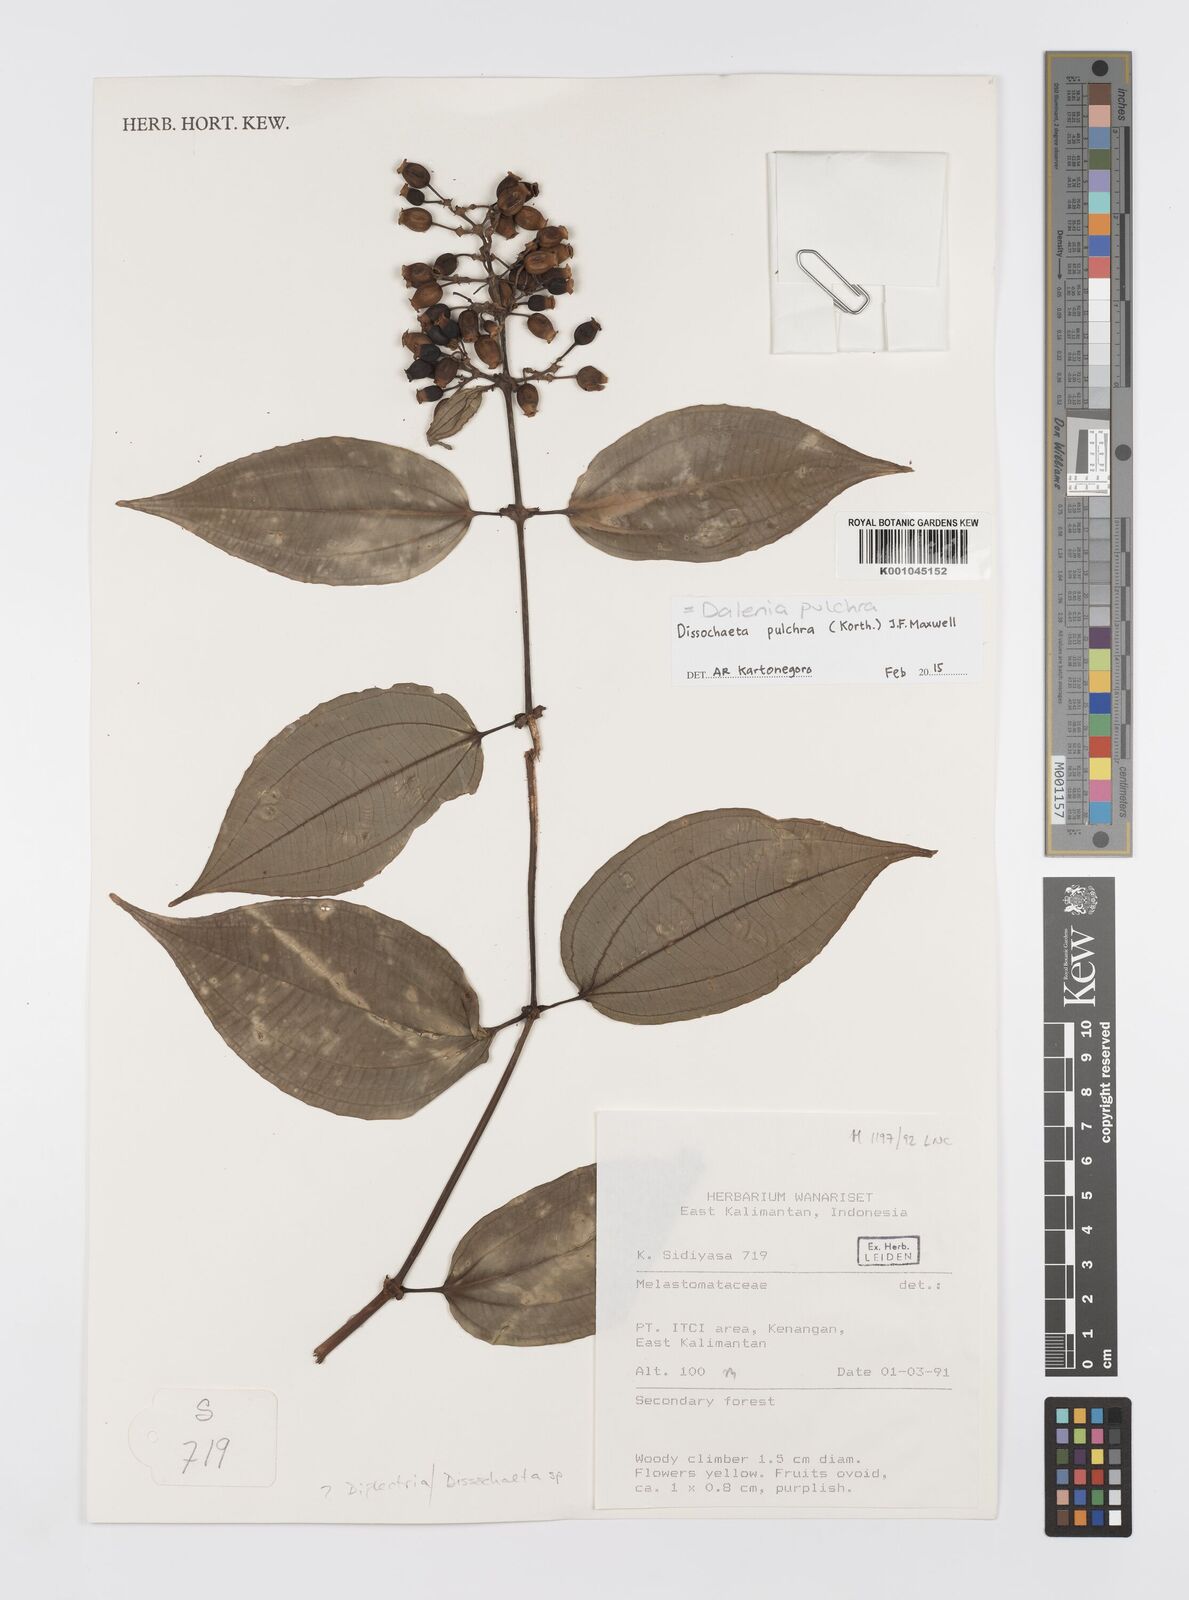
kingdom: Plantae
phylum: Tracheophyta
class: Magnoliopsida
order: Myrtales
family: Melastomataceae
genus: Dalenia
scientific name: Dalenia pulchra
